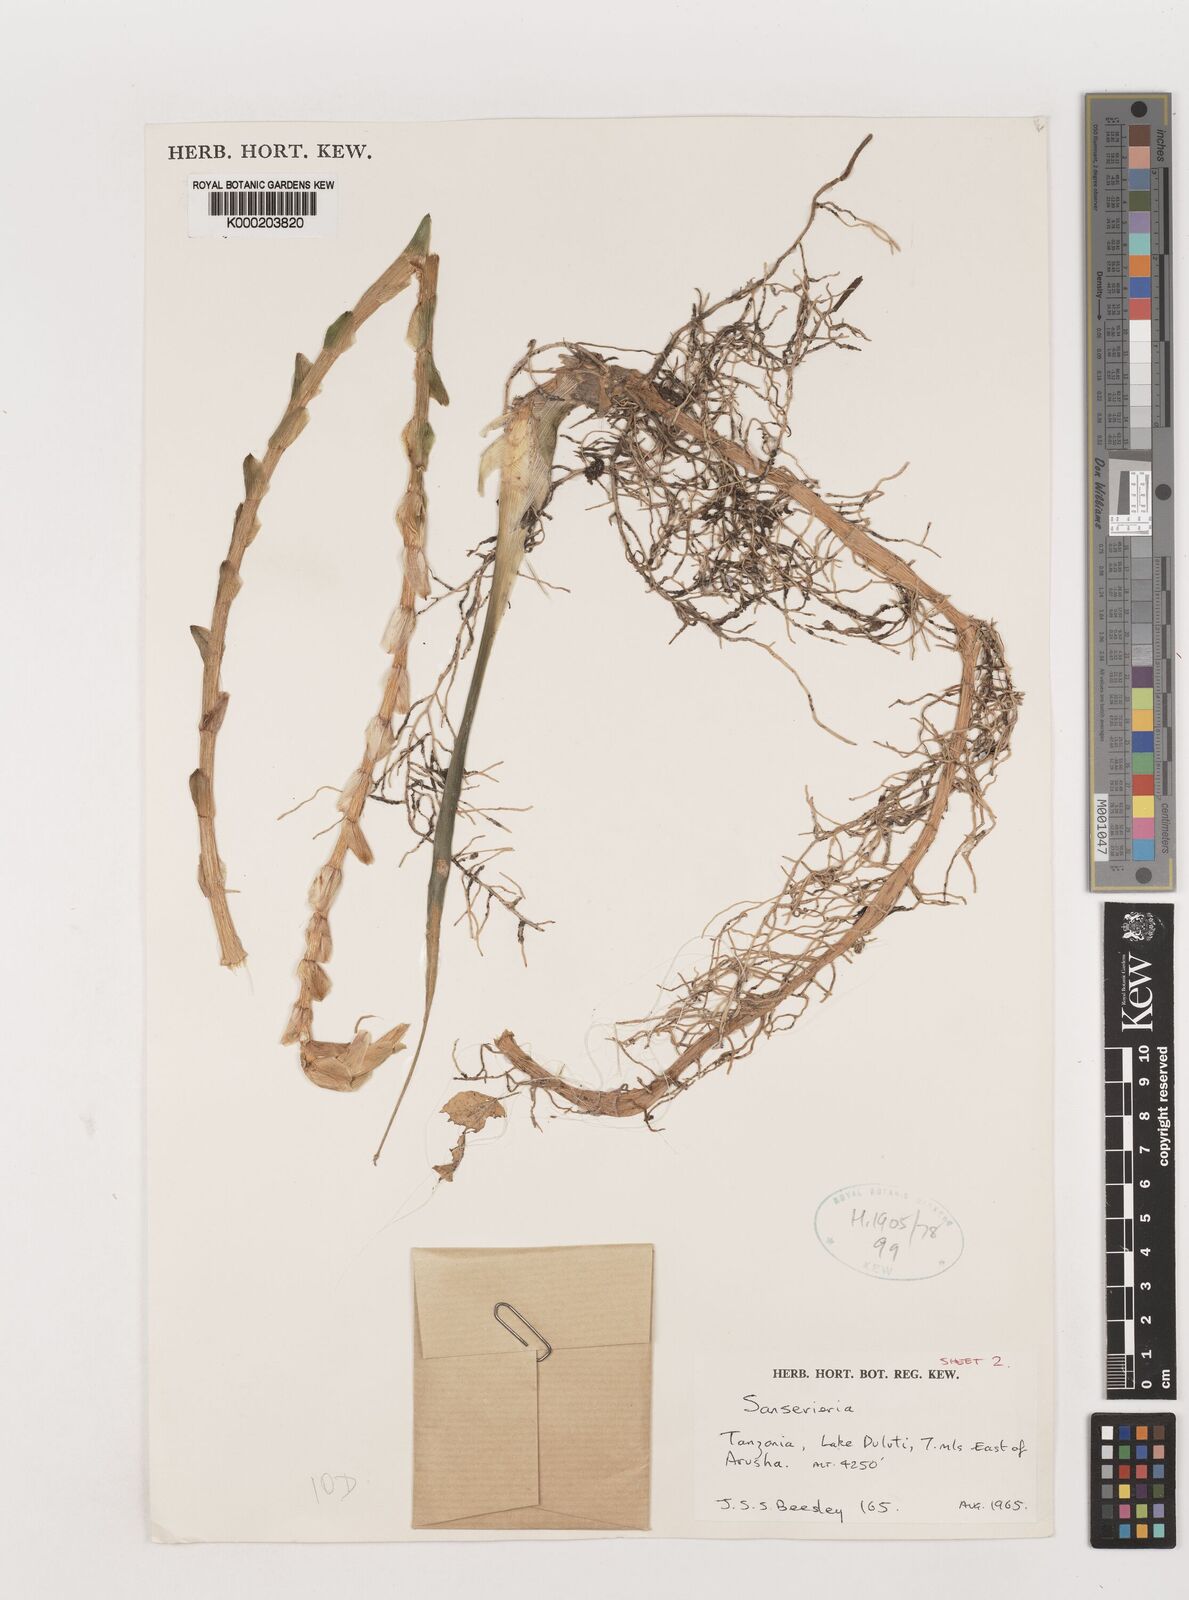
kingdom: Plantae
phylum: Tracheophyta
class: Liliopsida
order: Asparagales
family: Asparagaceae
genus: Dracaena
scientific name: Dracaena parva
